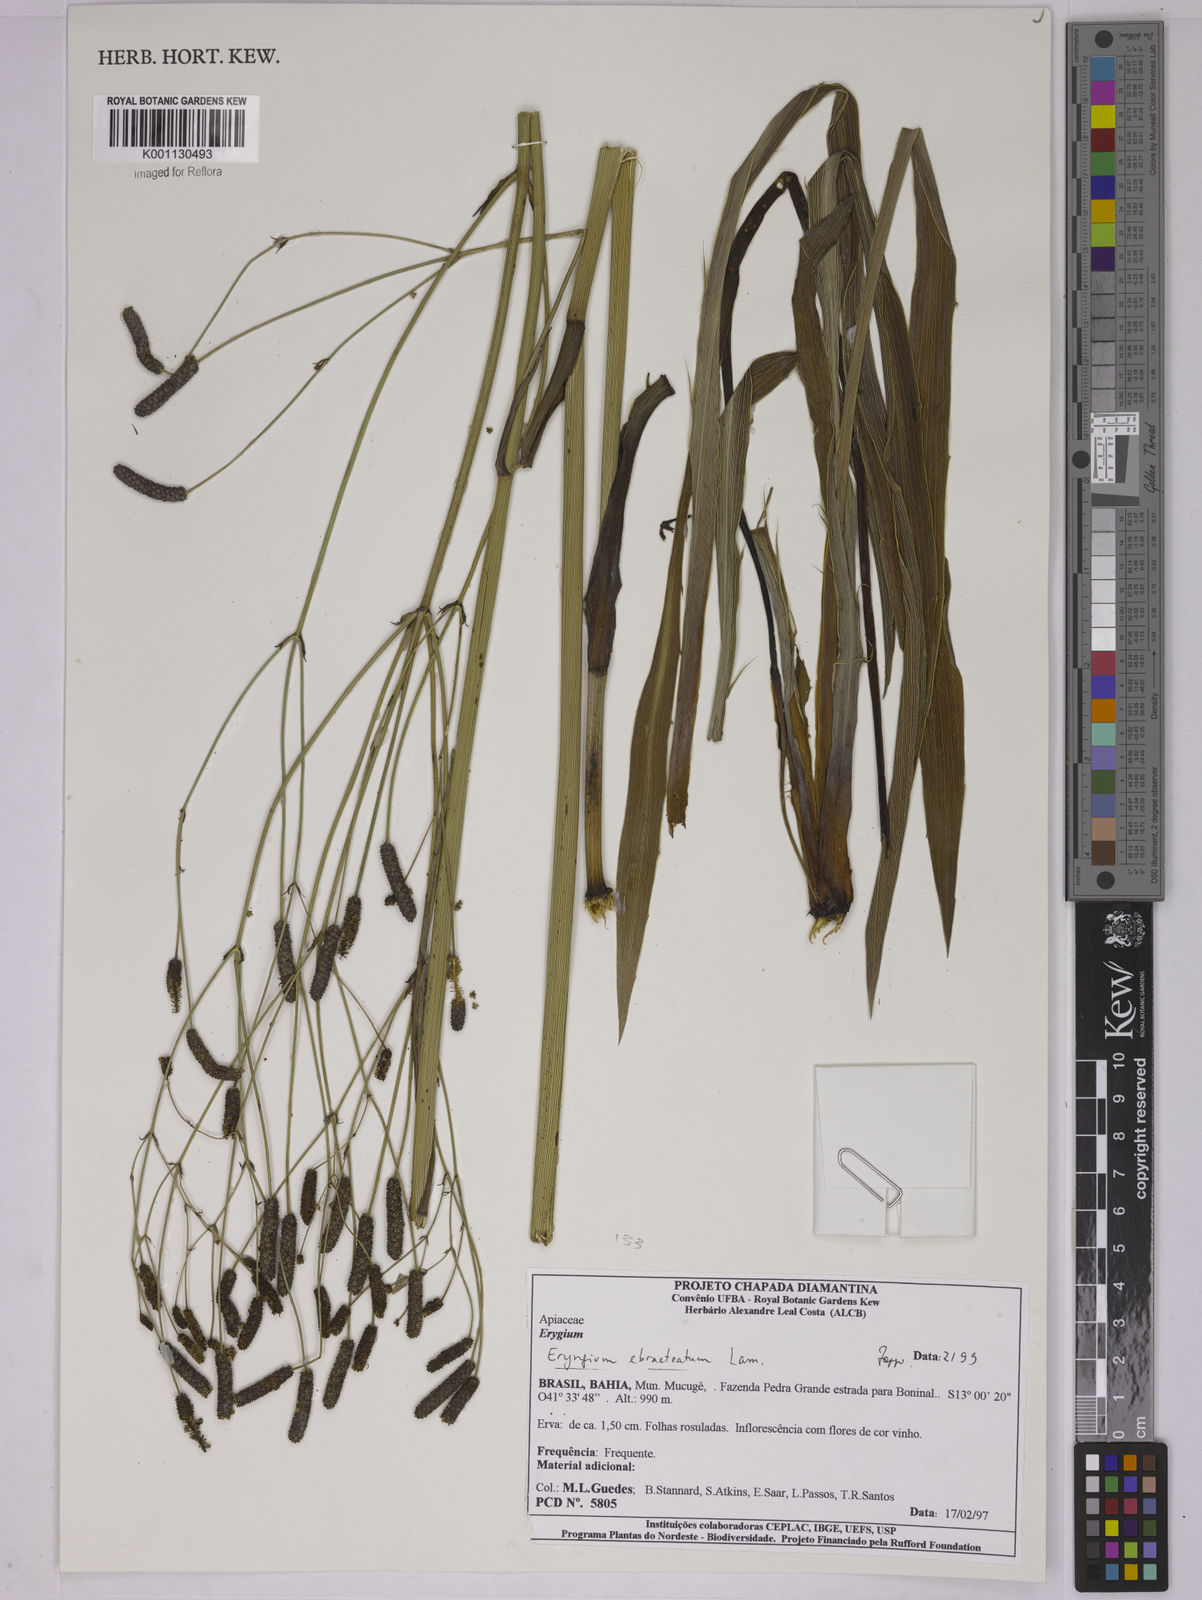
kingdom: Plantae
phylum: Tracheophyta
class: Magnoliopsida
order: Apiales
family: Apiaceae
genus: Eryngium
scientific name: Eryngium ebracteatum
